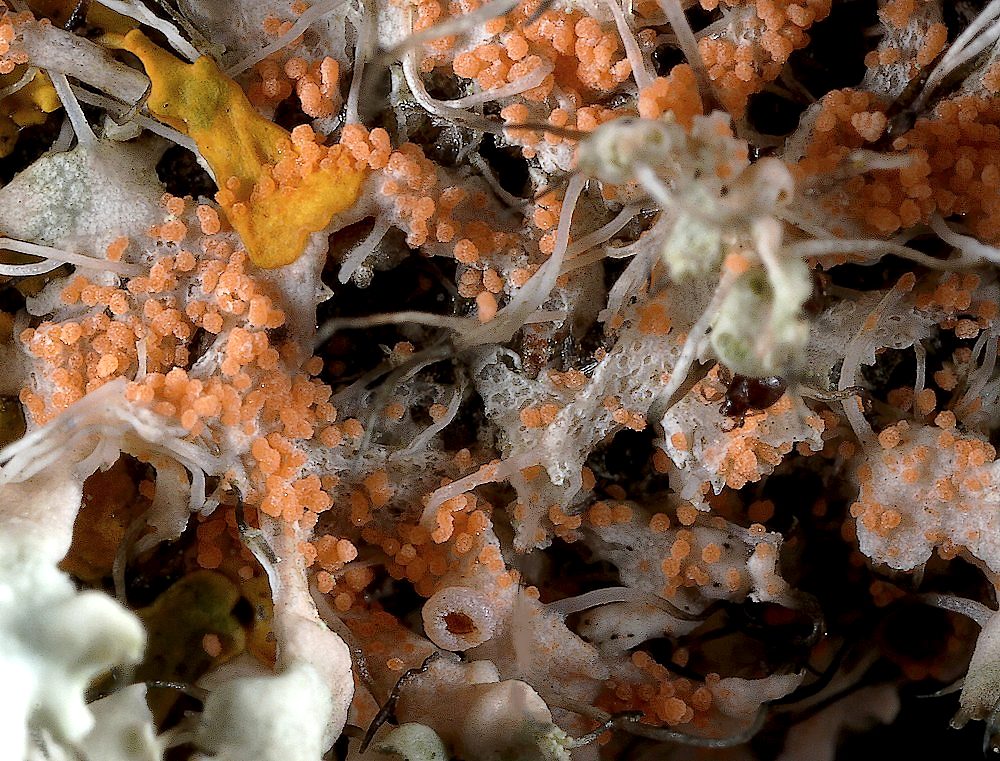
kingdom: Fungi
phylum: Basidiomycota
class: Agaricomycetes
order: Corticiales
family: Corticiaceae
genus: Erythricium
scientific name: Erythricium aurantiacum
